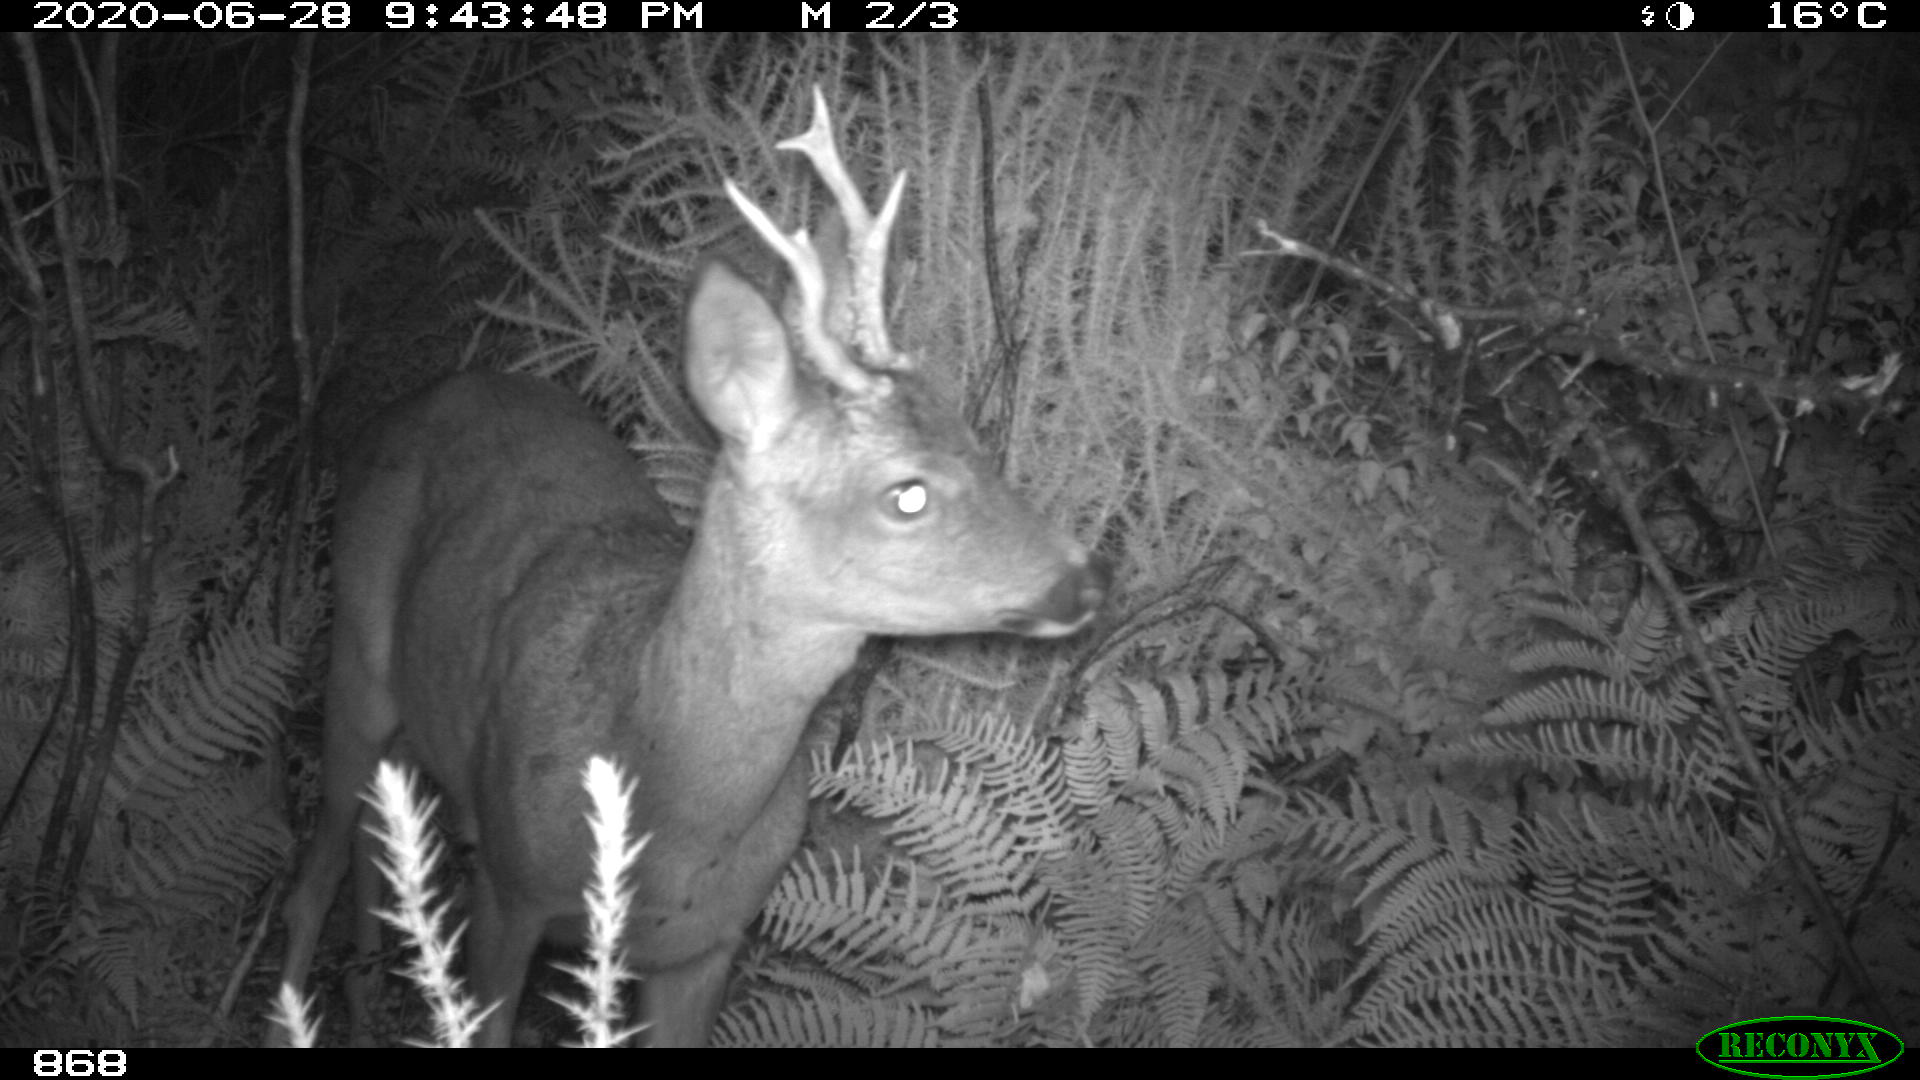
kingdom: Animalia
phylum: Chordata
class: Mammalia
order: Artiodactyla
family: Cervidae
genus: Capreolus
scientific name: Capreolus capreolus
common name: Western roe deer
